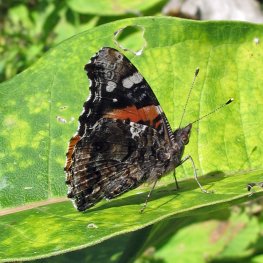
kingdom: Animalia
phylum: Arthropoda
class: Insecta
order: Lepidoptera
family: Nymphalidae
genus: Vanessa
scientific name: Vanessa atalanta
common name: Red Admiral
